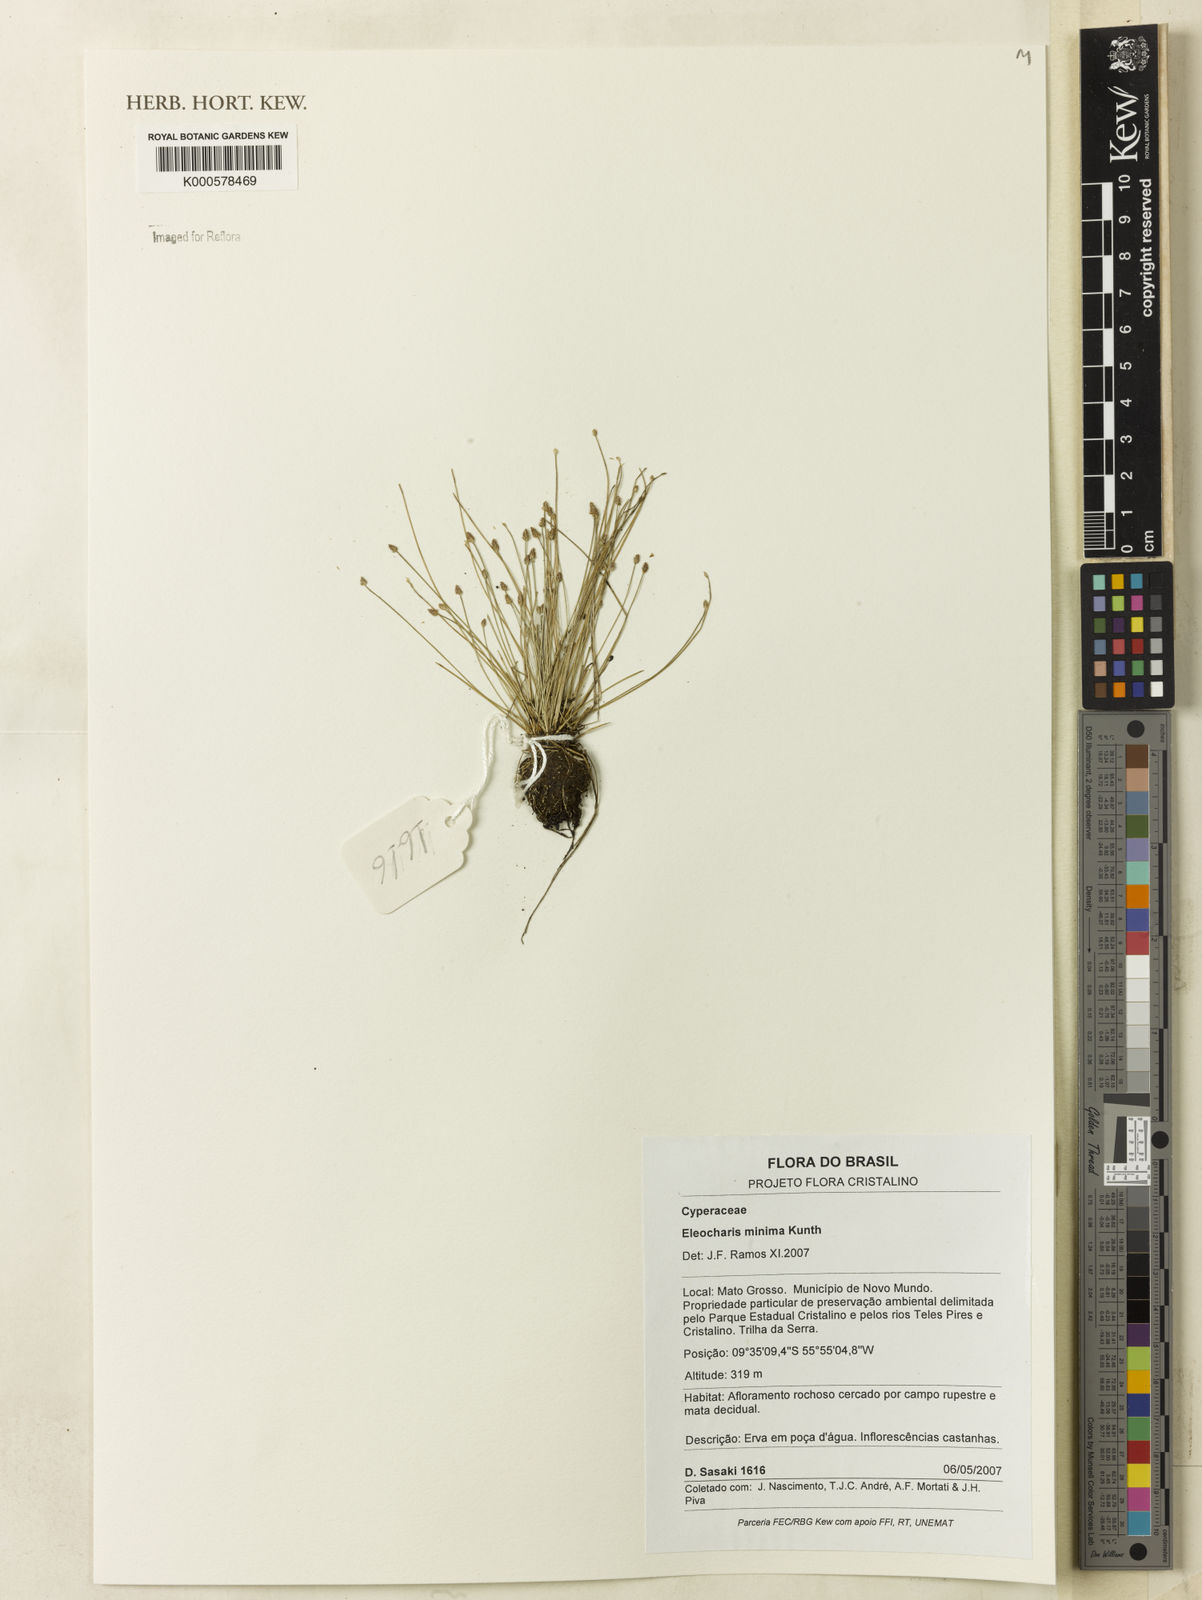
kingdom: Plantae
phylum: Tracheophyta
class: Liliopsida
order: Poales
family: Cyperaceae
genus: Eleocharis
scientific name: Eleocharis minima
